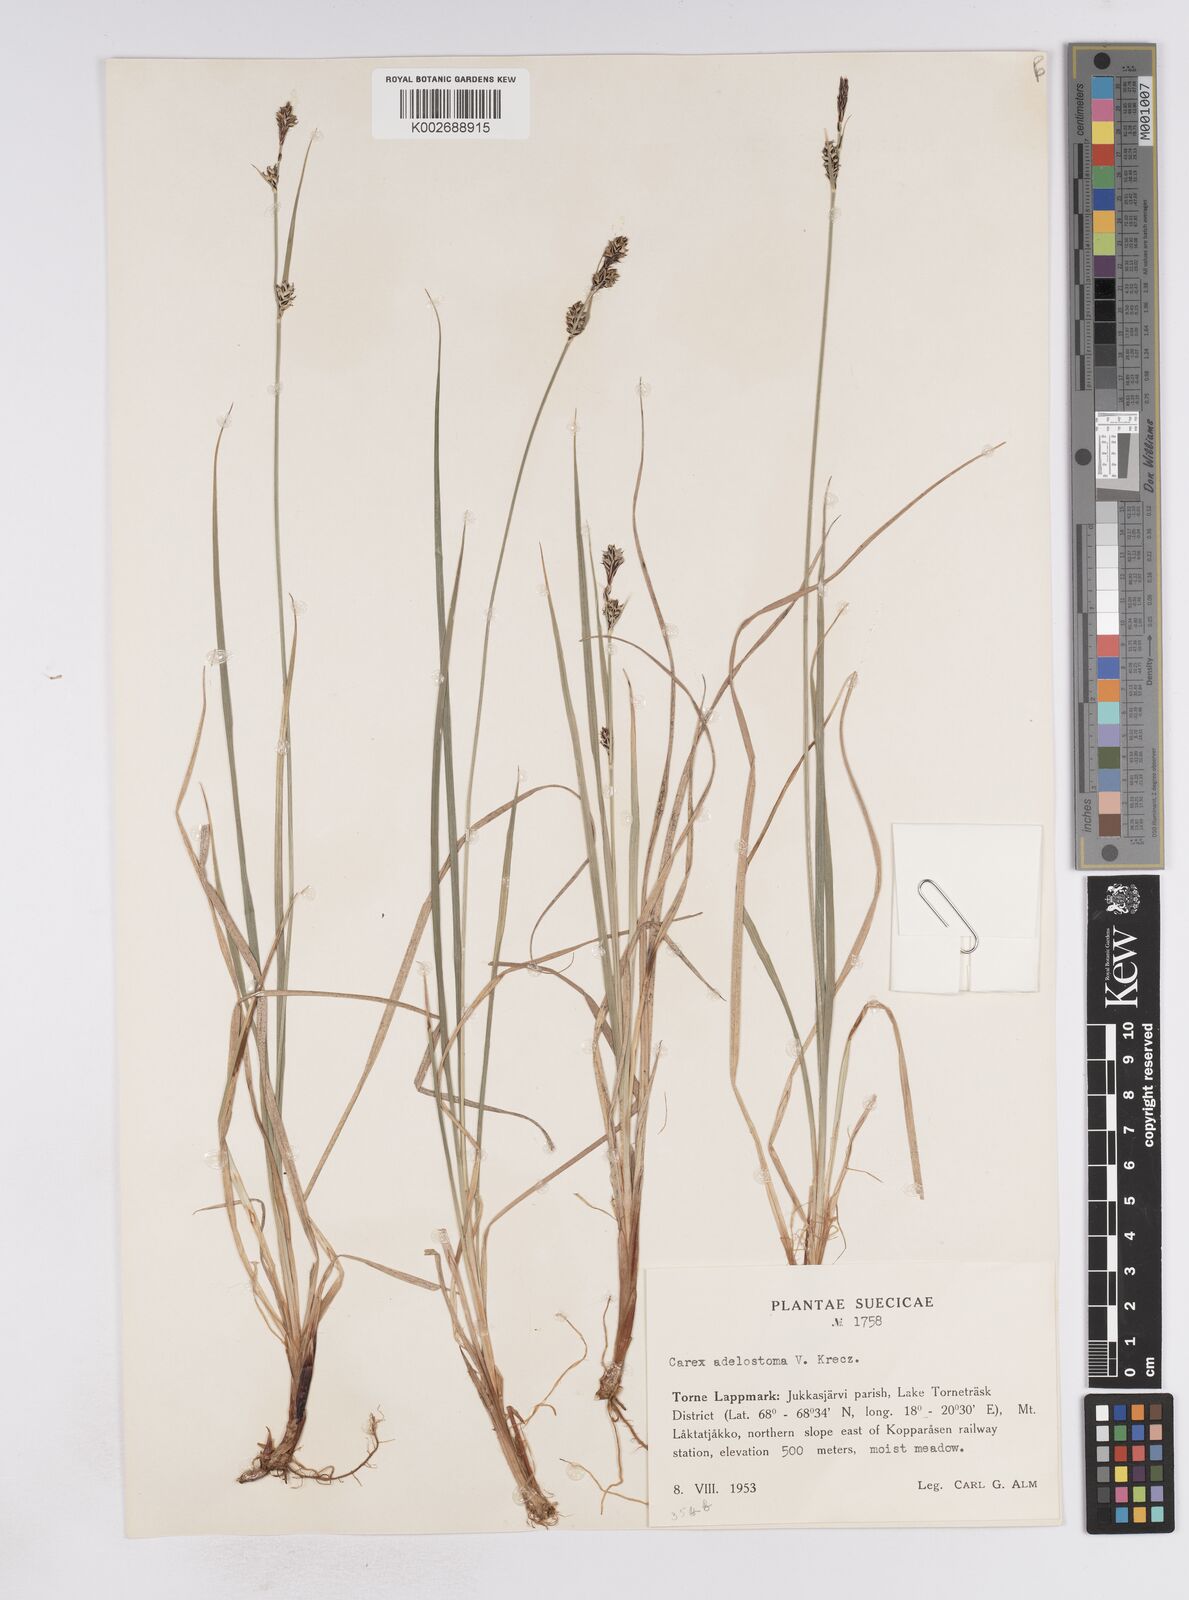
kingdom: Plantae
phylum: Tracheophyta
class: Liliopsida
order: Poales
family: Cyperaceae
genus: Carex
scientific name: Carex adelostoma
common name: Circumpolar sedge
